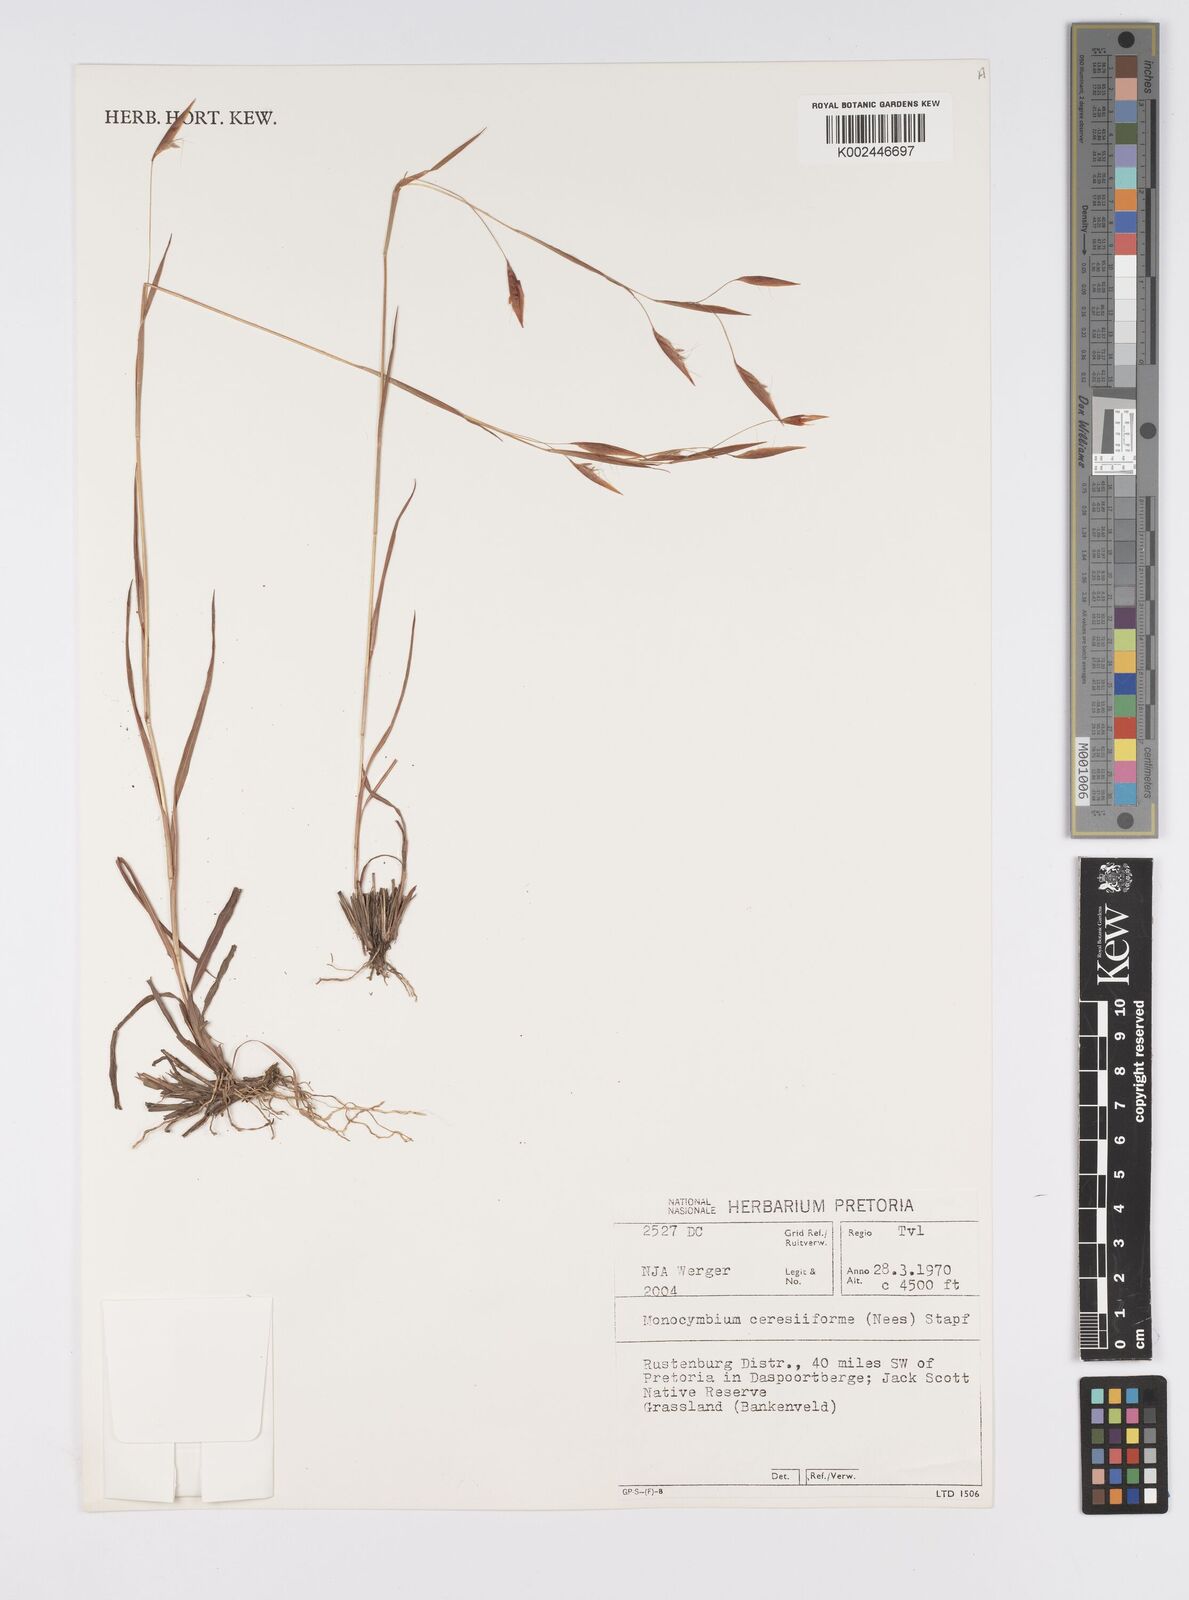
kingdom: Plantae
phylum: Tracheophyta
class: Liliopsida
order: Poales
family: Poaceae
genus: Monocymbium
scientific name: Monocymbium ceresiiforme
